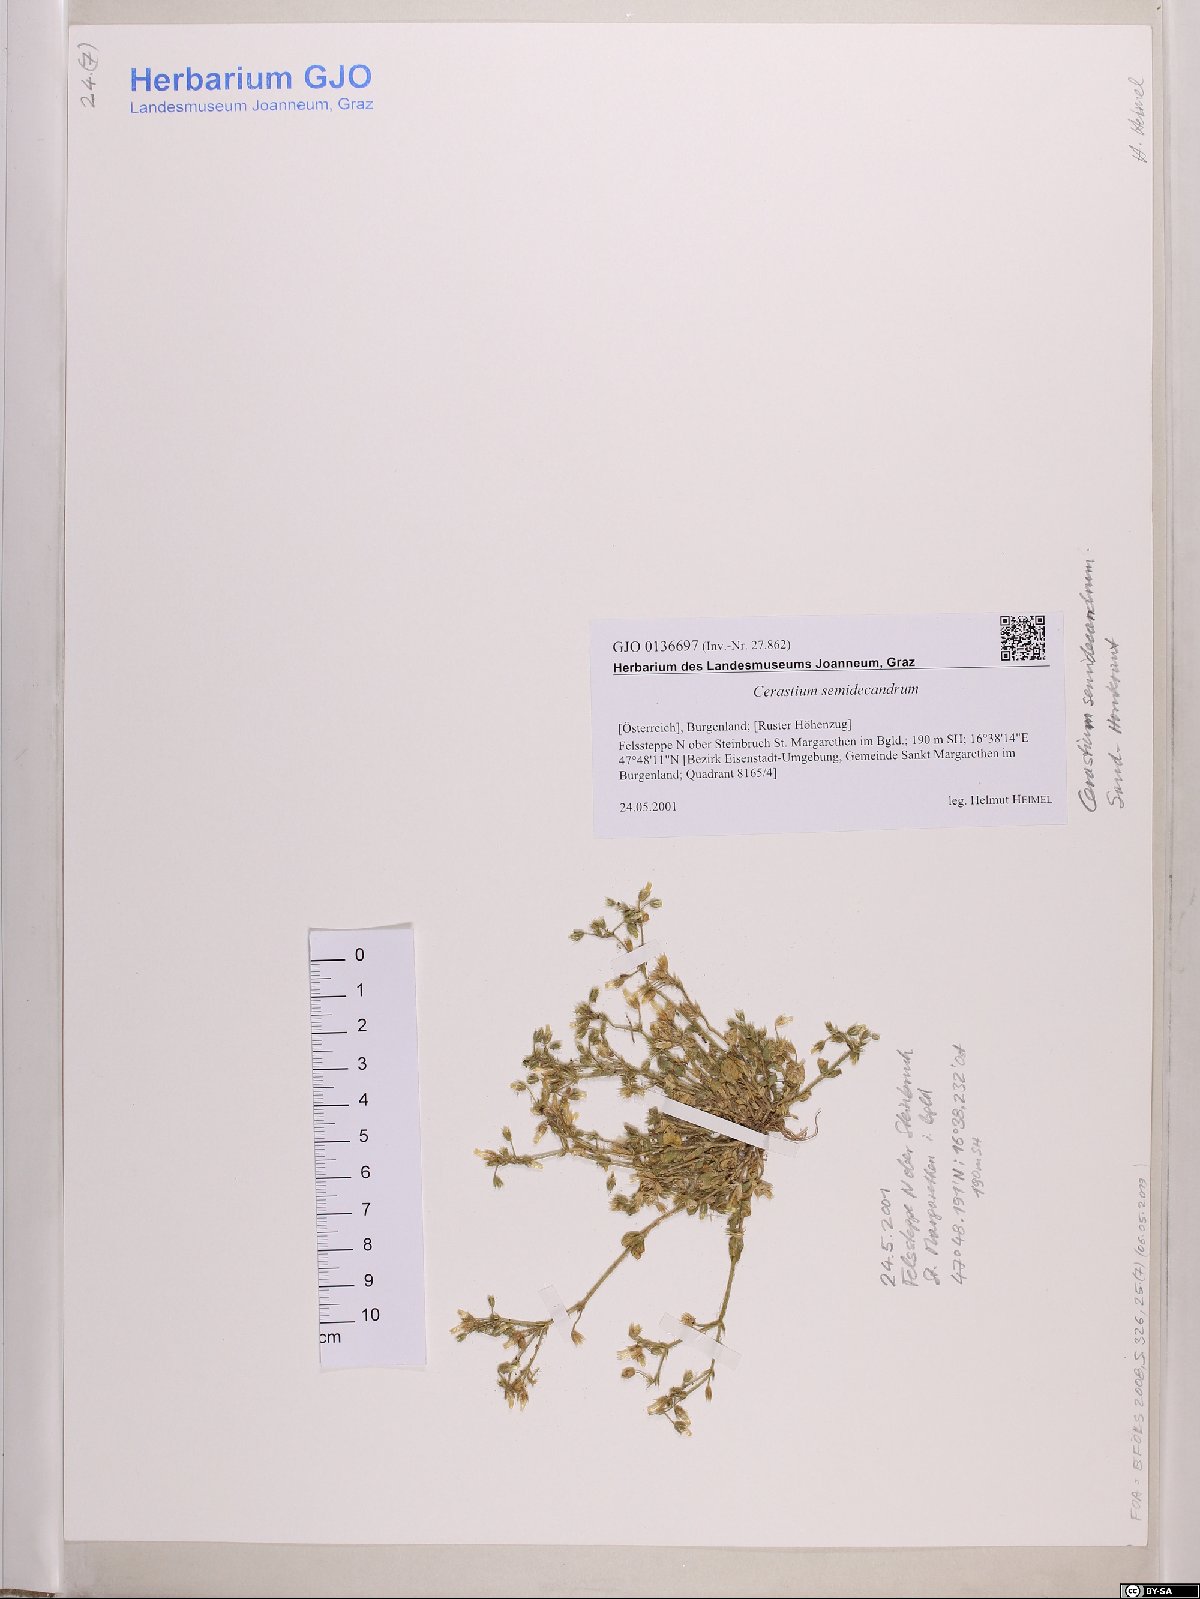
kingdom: Plantae
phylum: Tracheophyta
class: Magnoliopsida
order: Caryophyllales
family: Caryophyllaceae
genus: Cerastium
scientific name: Cerastium semidecandrum
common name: Little mouse-ear
